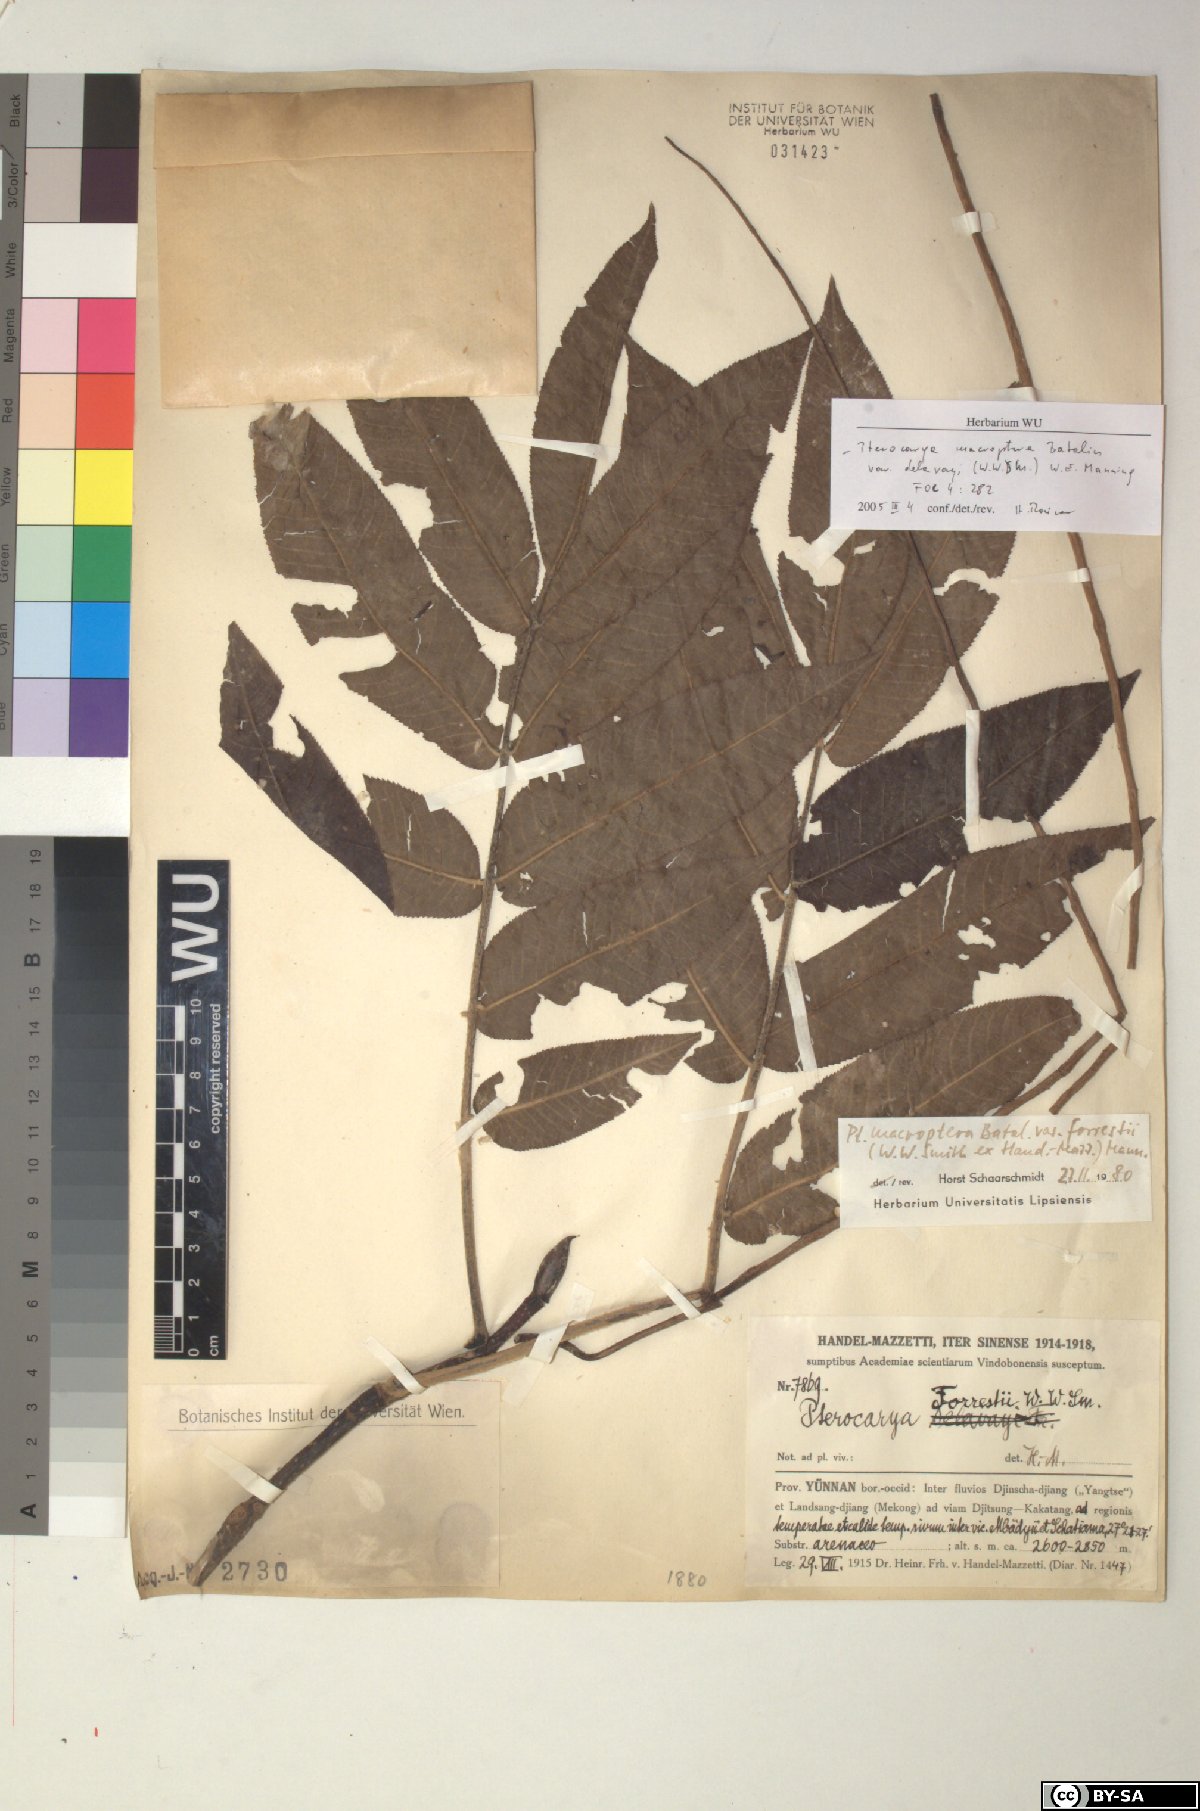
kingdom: Plantae
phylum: Tracheophyta
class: Magnoliopsida
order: Fagales
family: Juglandaceae
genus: Pterocarya
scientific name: Pterocarya macroptera
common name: Large-winged wingnut
